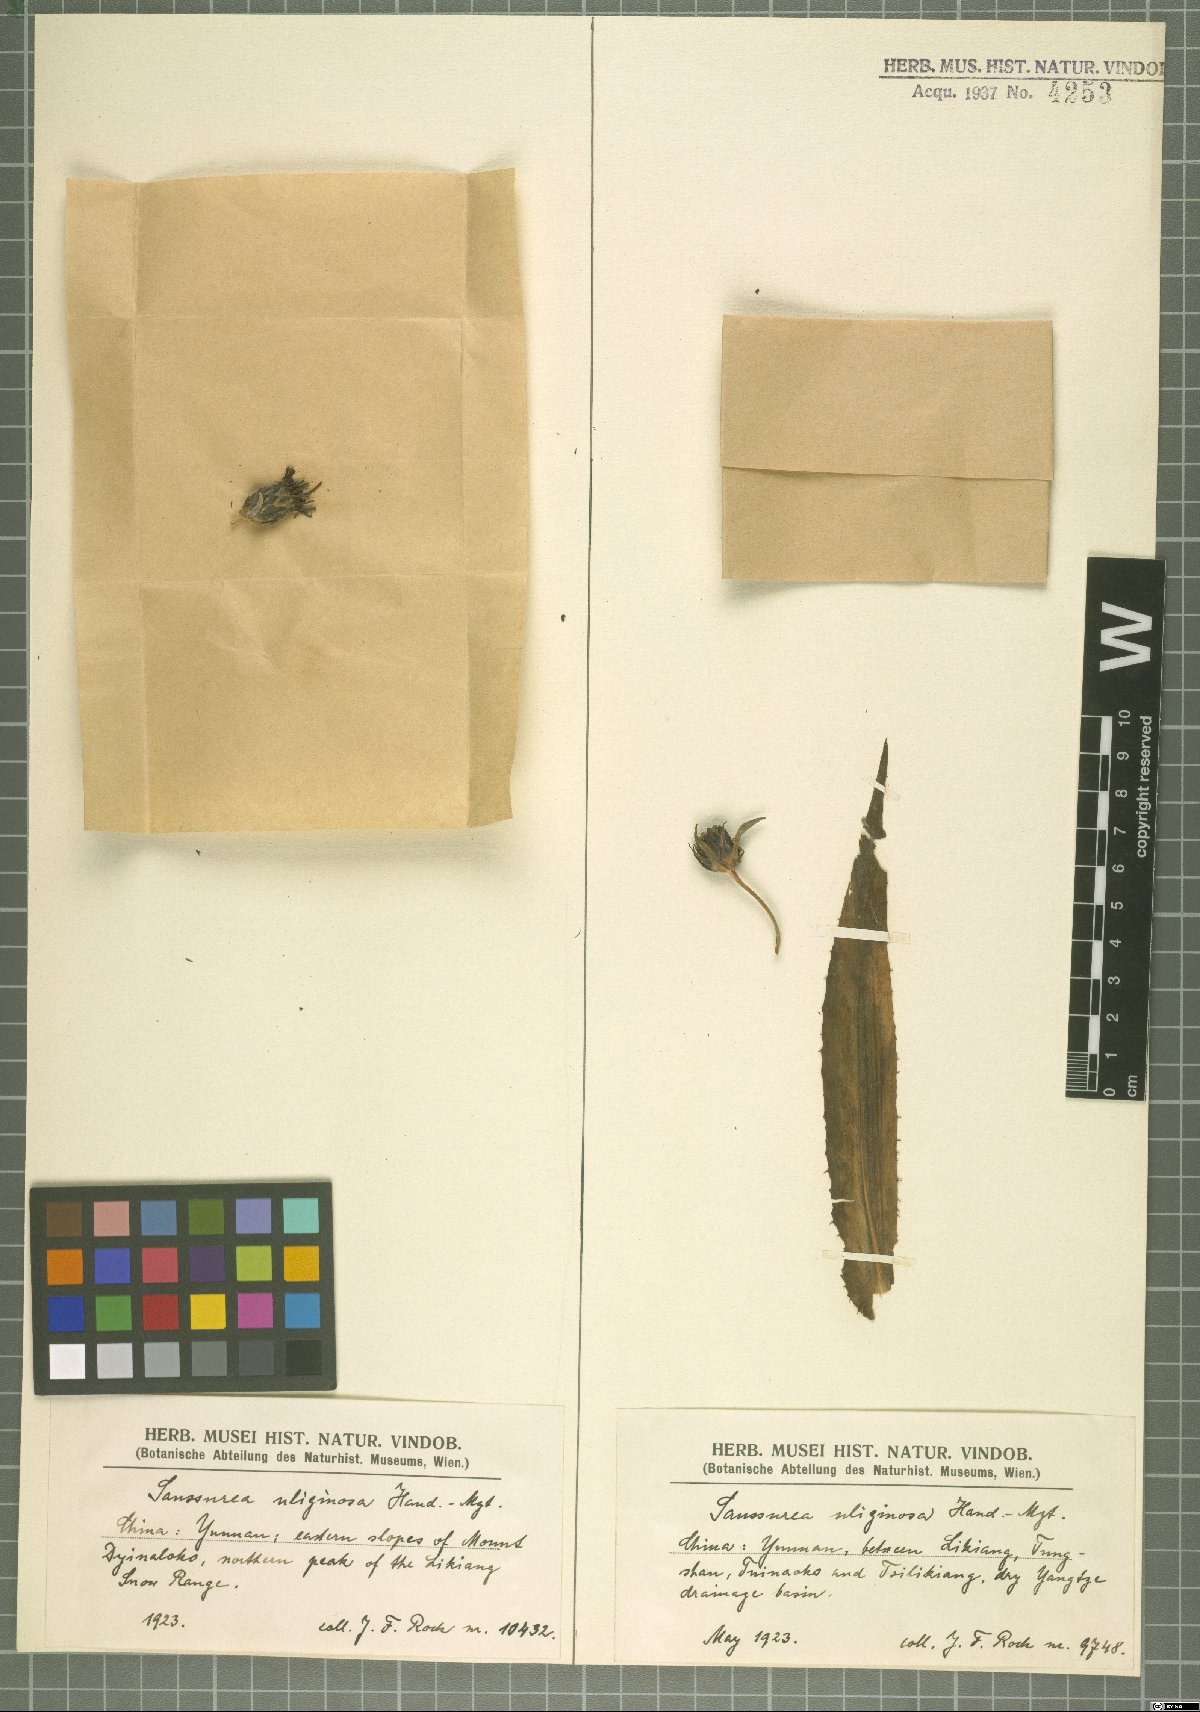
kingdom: Plantae
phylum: Tracheophyta
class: Magnoliopsida
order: Asterales
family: Asteraceae
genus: Saussurea
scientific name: Saussurea uliginosa
